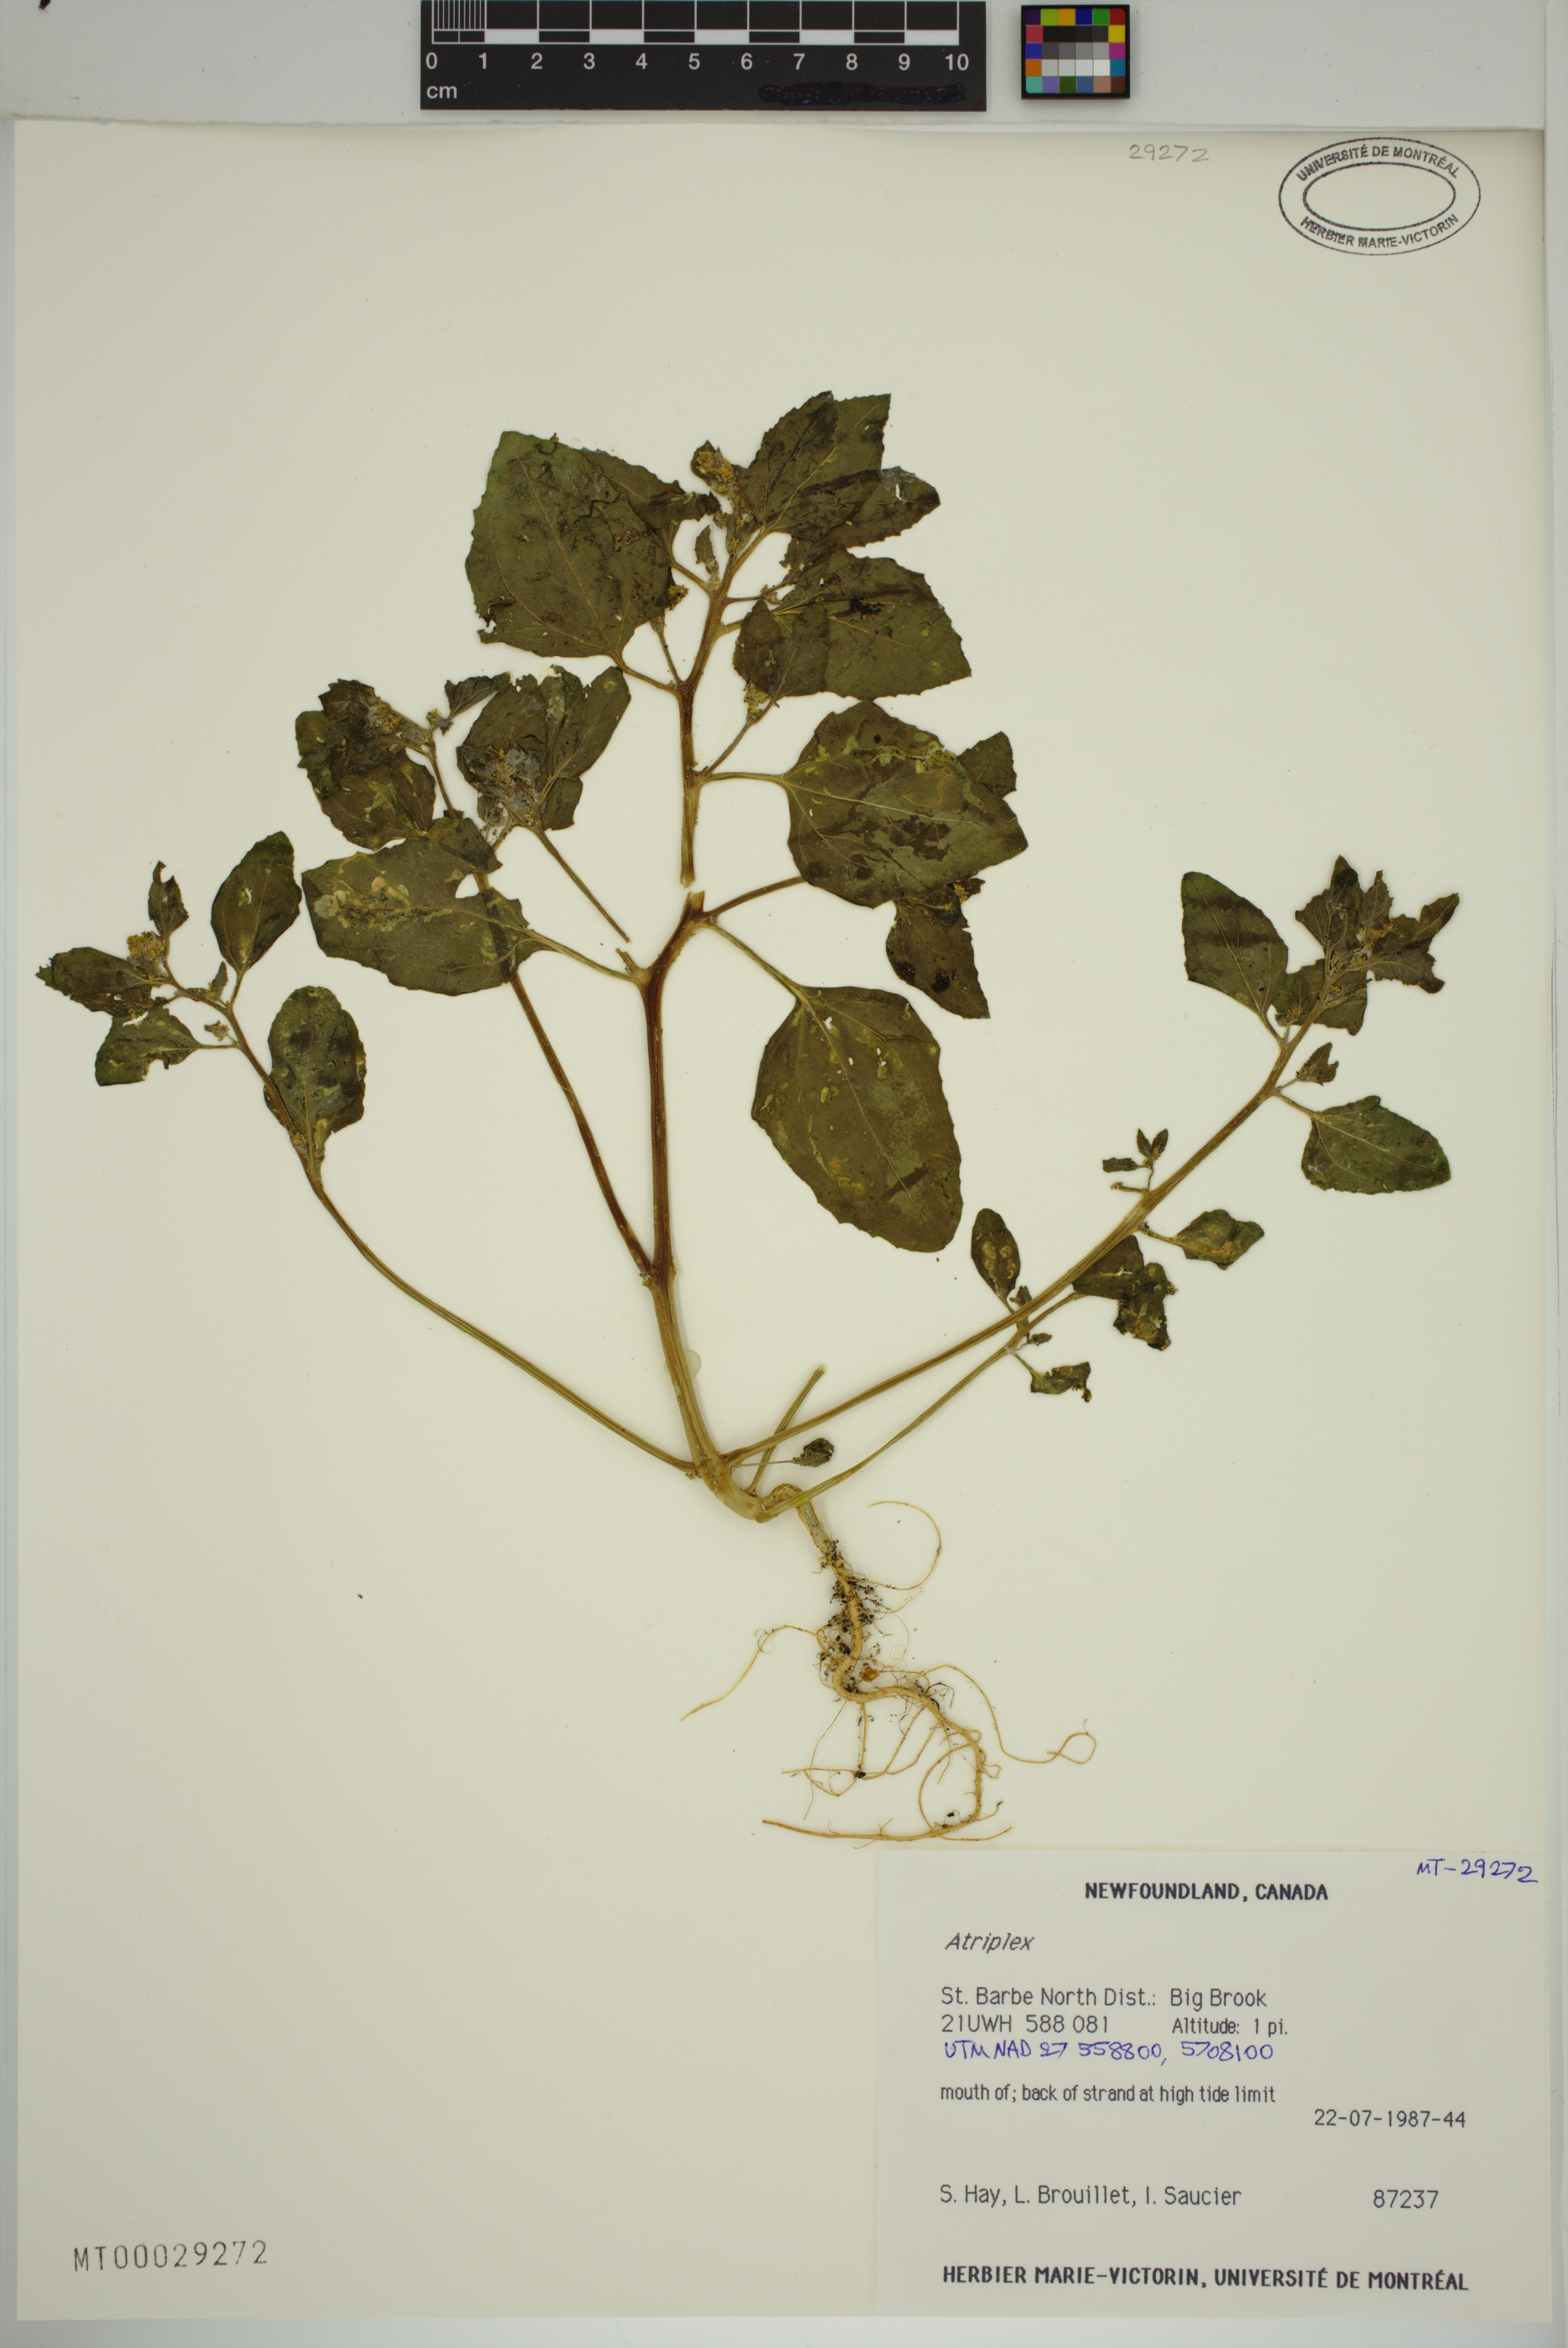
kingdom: Plantae
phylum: Tracheophyta
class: Magnoliopsida
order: Caryophyllales
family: Amaranthaceae
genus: Atriplex
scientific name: Atriplex
